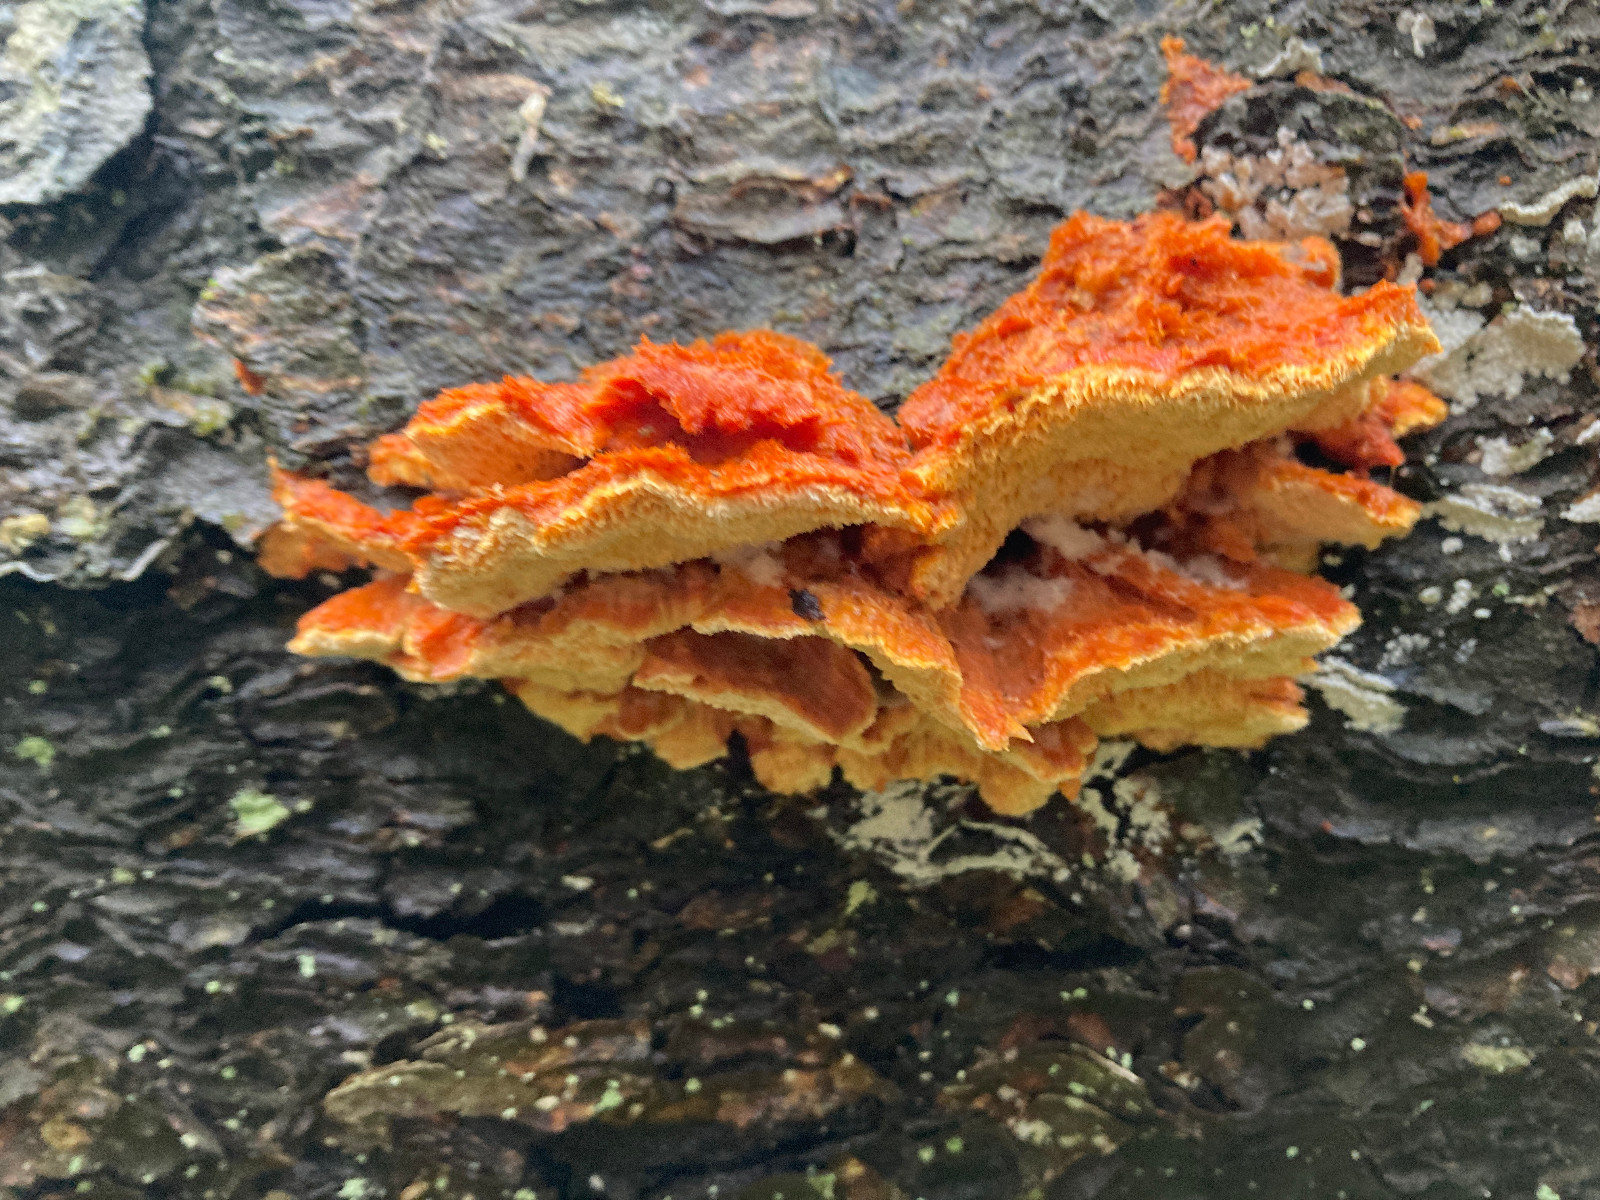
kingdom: Fungi
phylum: Basidiomycota
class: Agaricomycetes
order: Polyporales
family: Pycnoporellaceae
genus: Pycnoporellus
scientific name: Pycnoporellus fulgens
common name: flammeporesvamp
